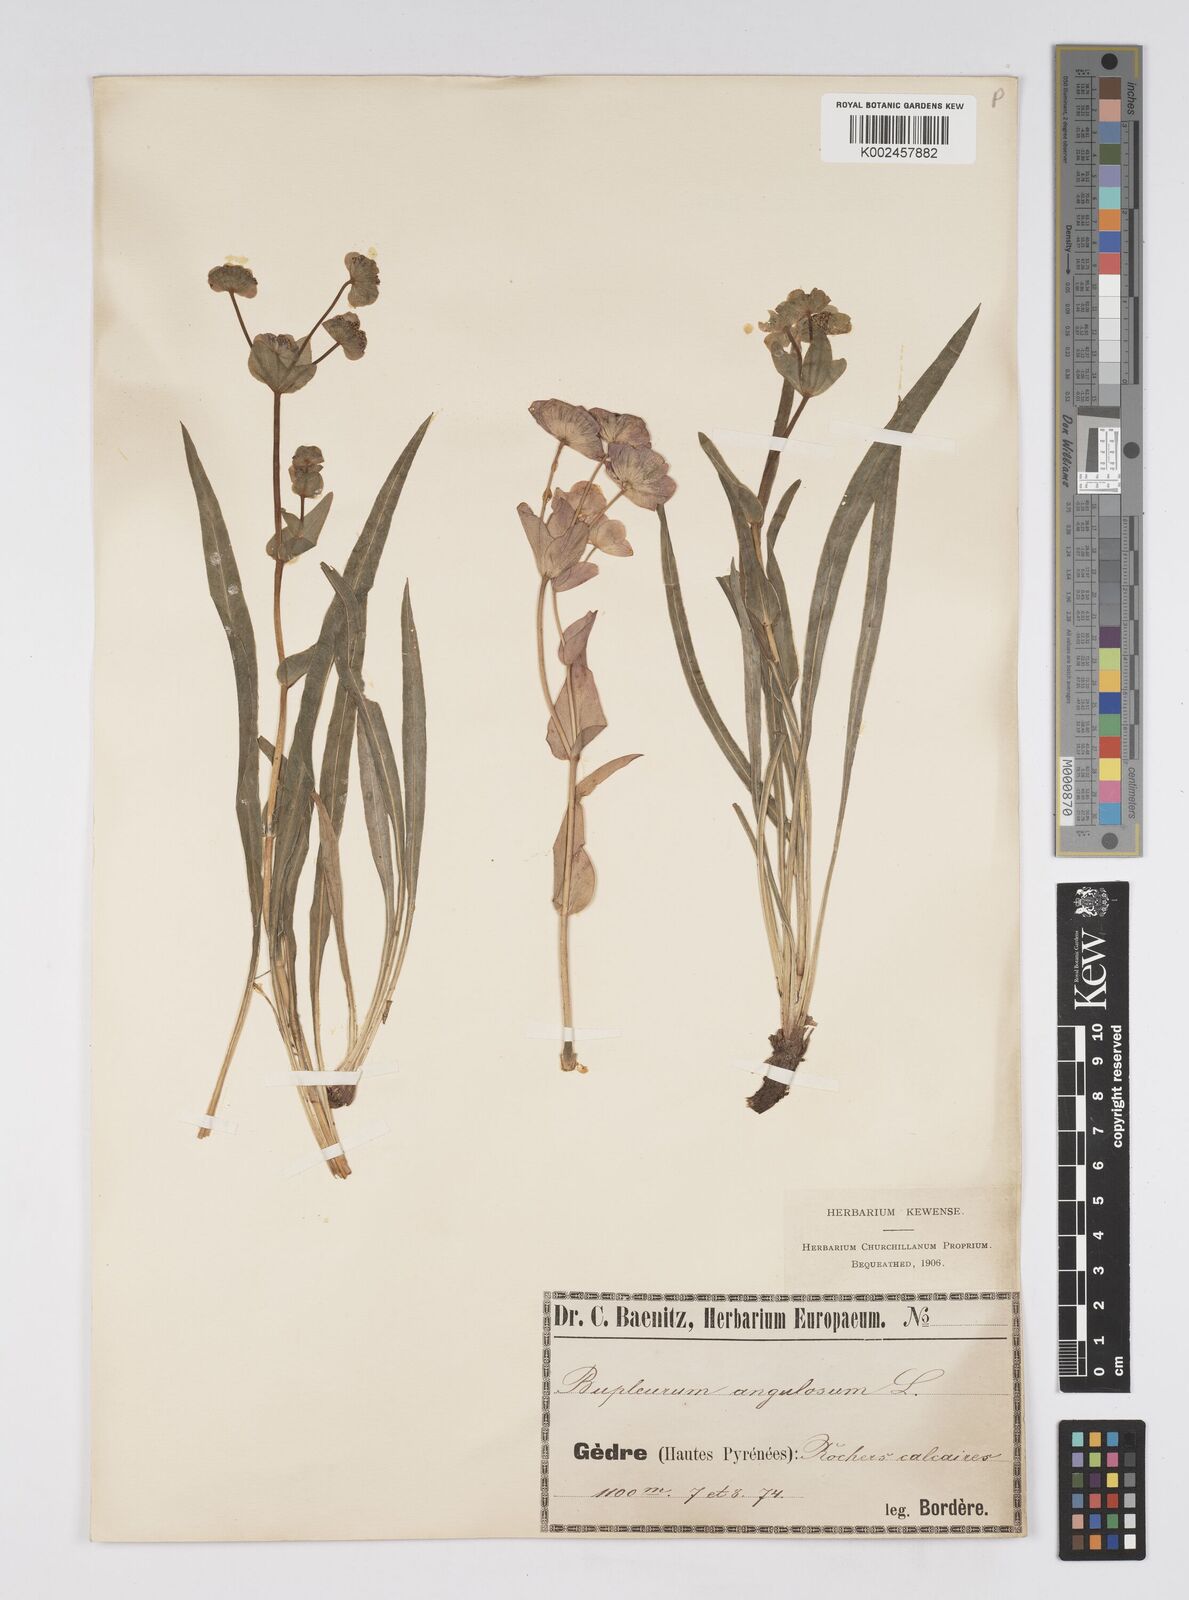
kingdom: Plantae
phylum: Tracheophyta
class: Magnoliopsida
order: Apiales
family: Apiaceae
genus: Bupleurum
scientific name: Bupleurum angulosum
